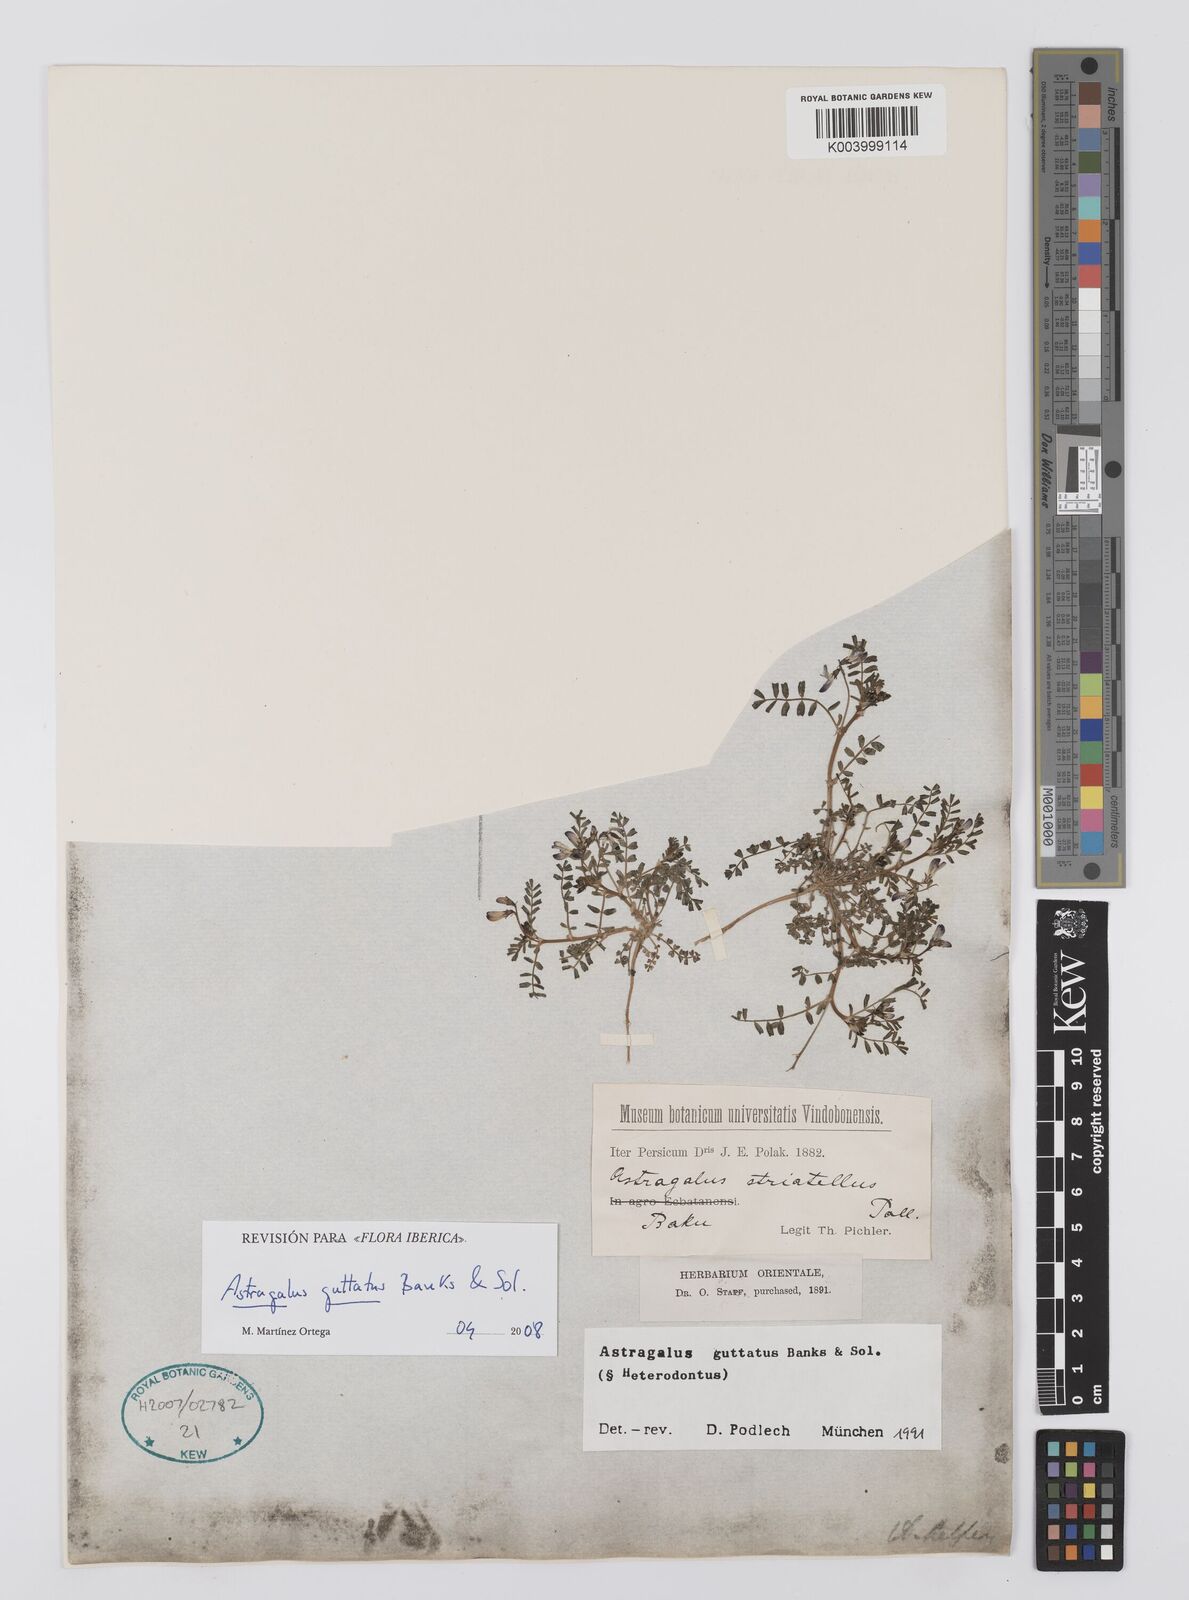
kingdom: Plantae
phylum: Tracheophyta
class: Magnoliopsida
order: Fabales
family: Fabaceae
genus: Astragalus
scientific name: Astragalus guttatus
